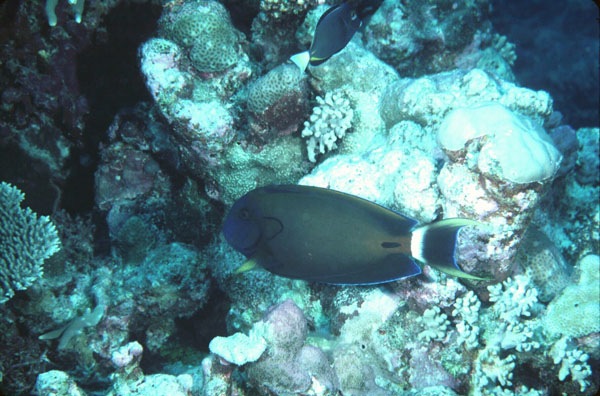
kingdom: Animalia
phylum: Chordata
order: Perciformes
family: Acanthuridae
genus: Acanthurus
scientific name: Acanthurus fowleri
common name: Fowler's surgeonfish
